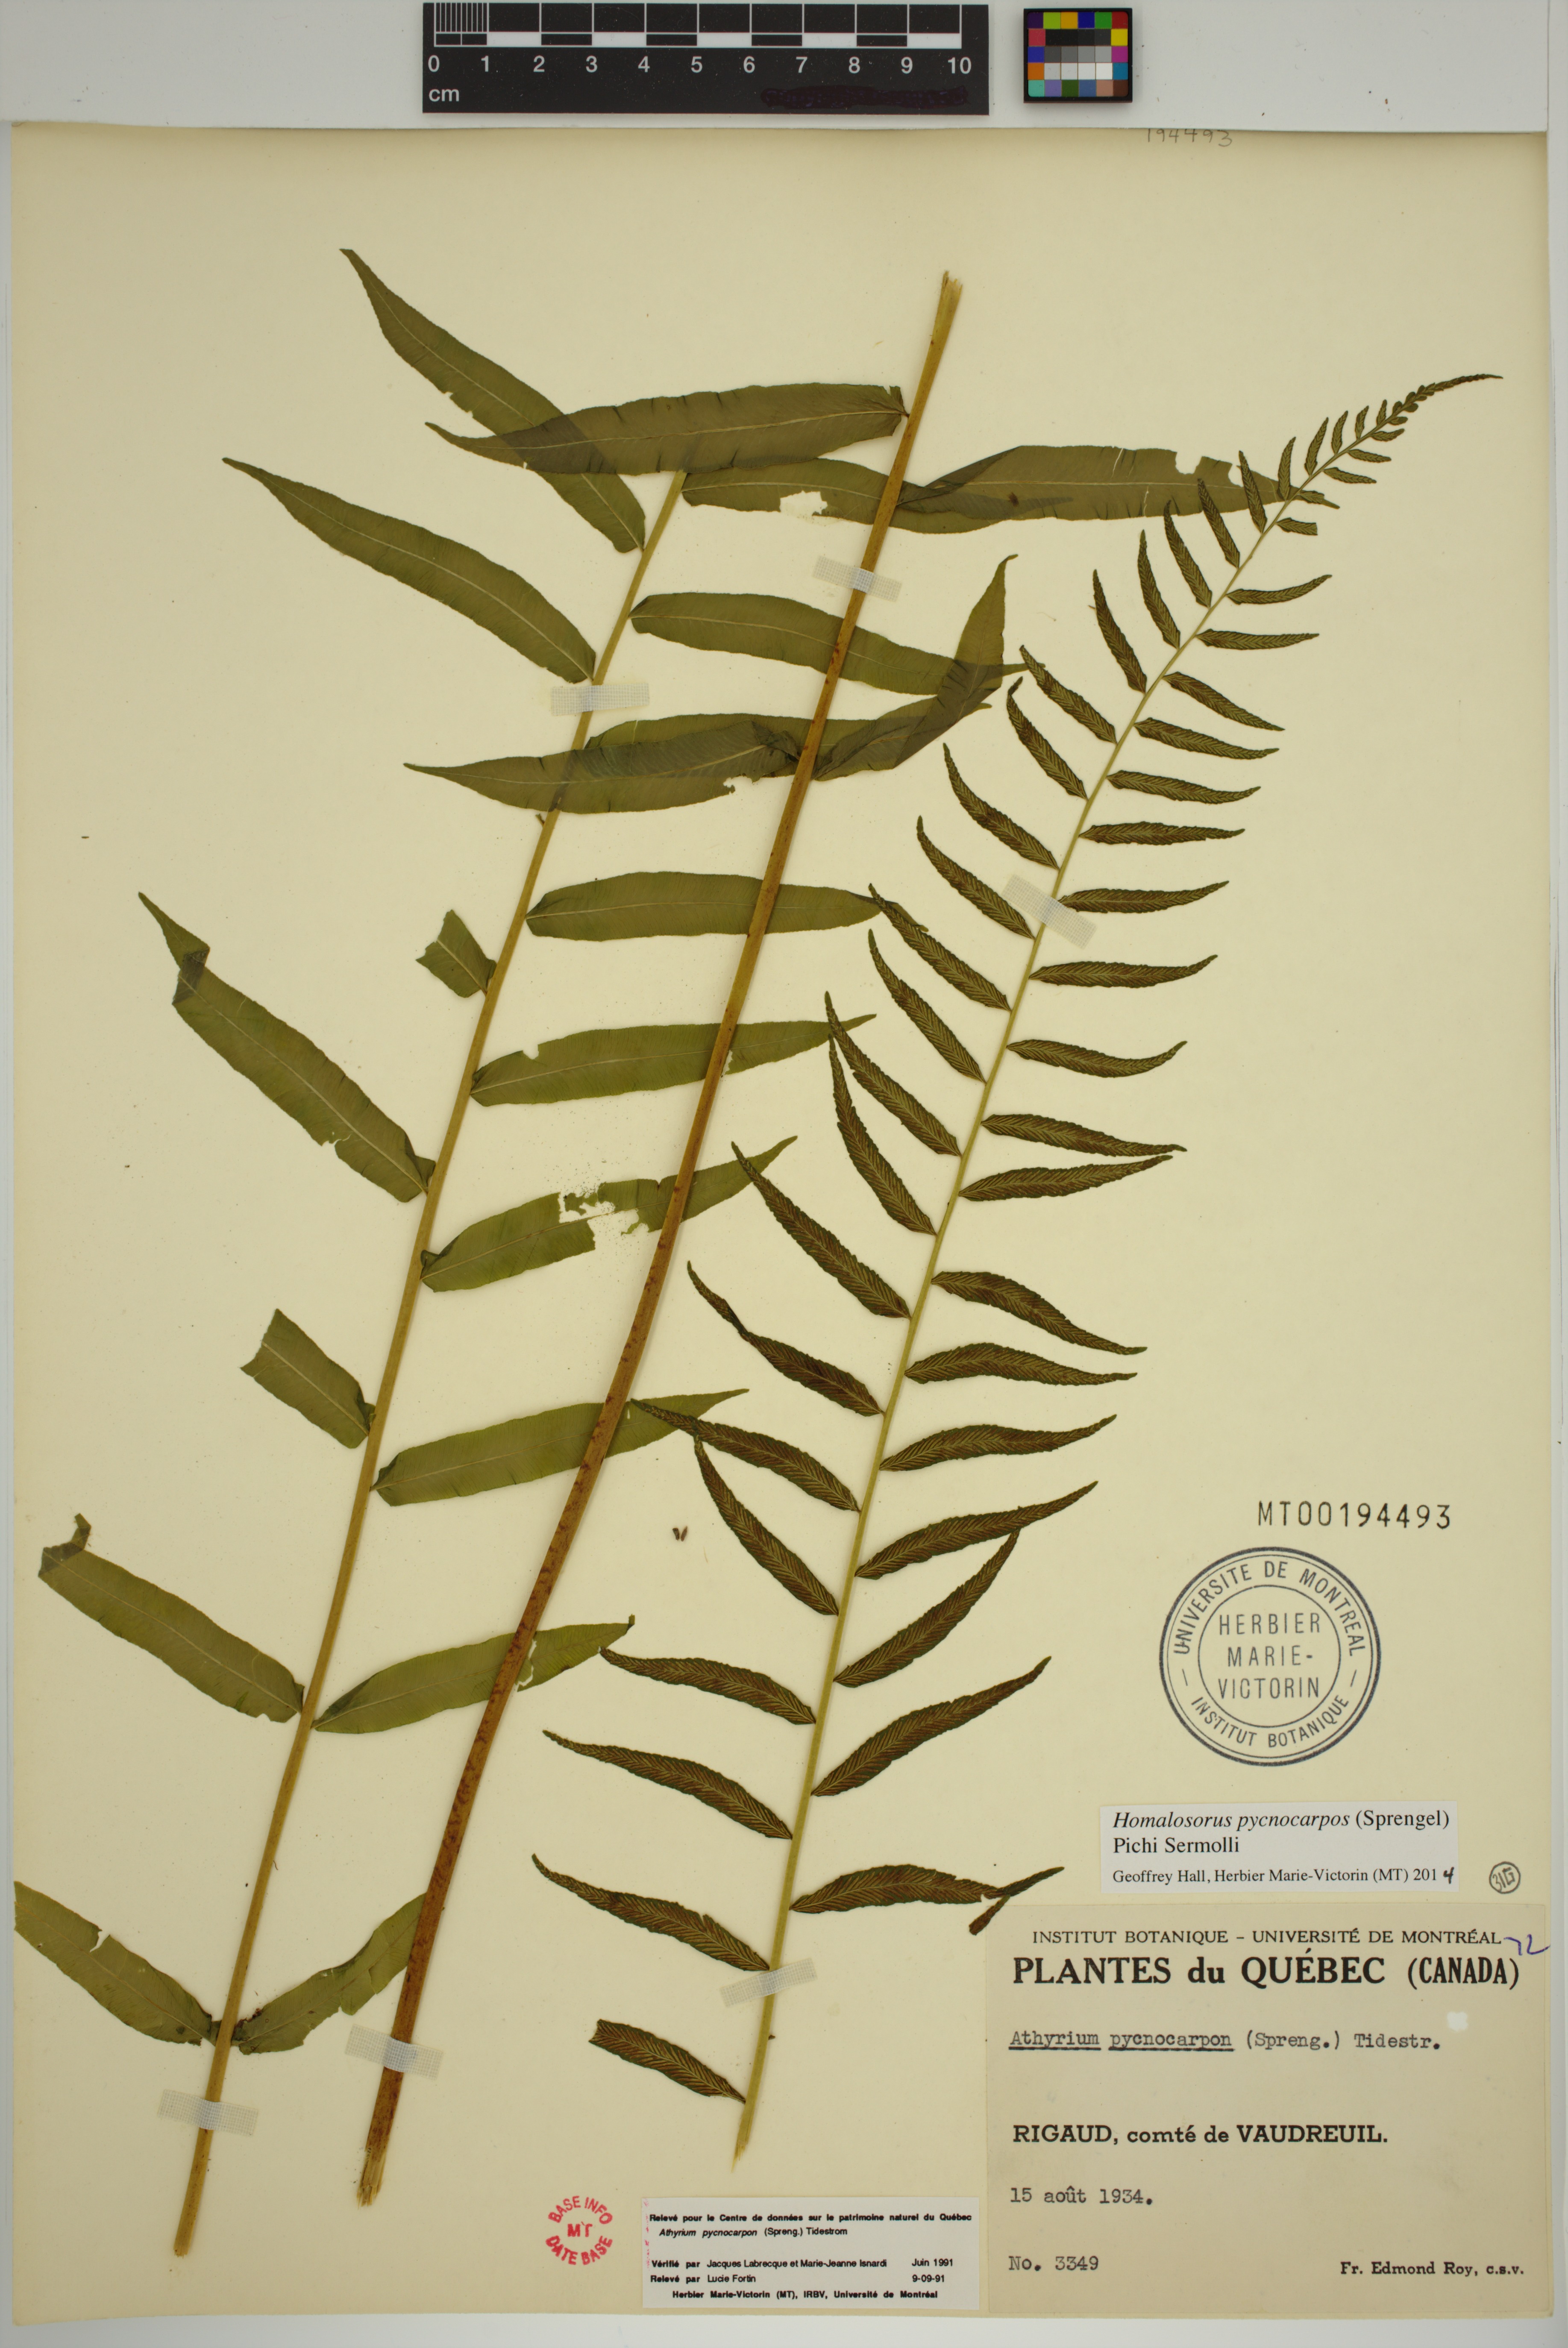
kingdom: Plantae
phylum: Tracheophyta
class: Polypodiopsida
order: Polypodiales
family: Diplaziopsidaceae
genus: Homalosorus
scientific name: Homalosorus pycnocarpos
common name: Glade fern
